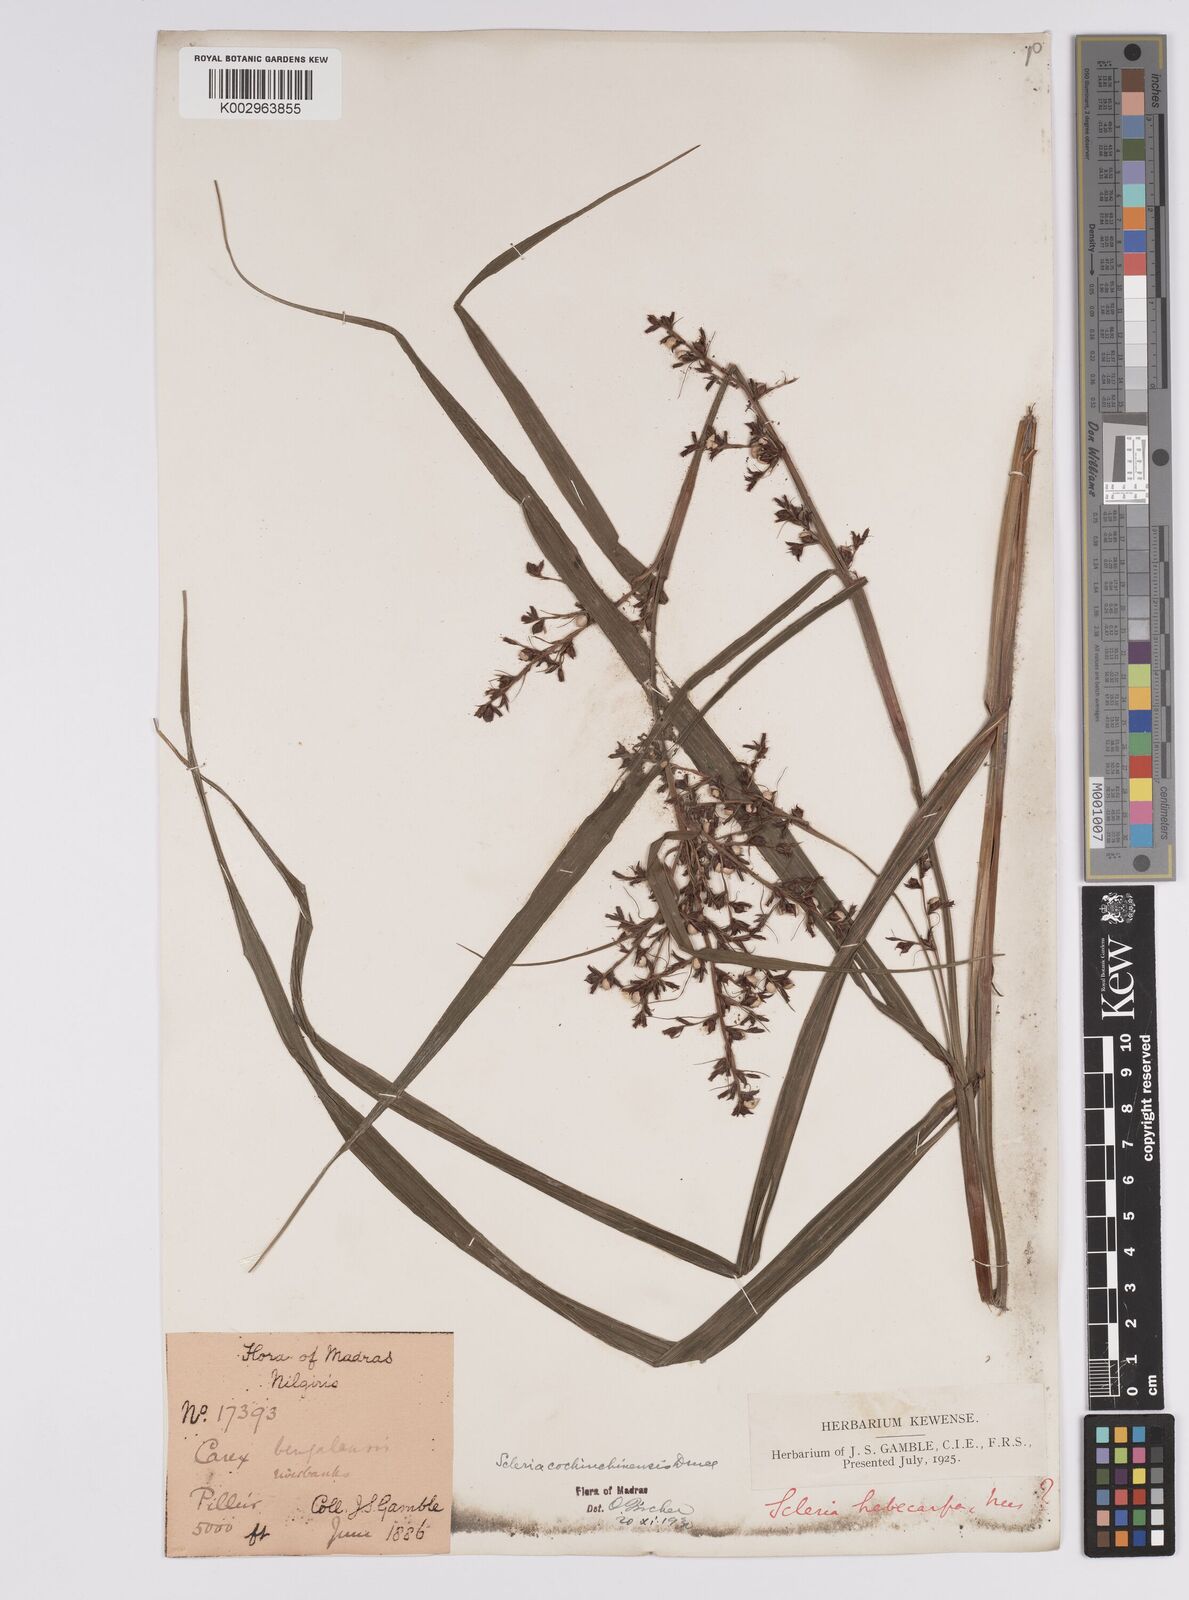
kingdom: Plantae
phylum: Tracheophyta
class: Liliopsida
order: Poales
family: Cyperaceae
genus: Scleria
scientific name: Scleria terrestris
